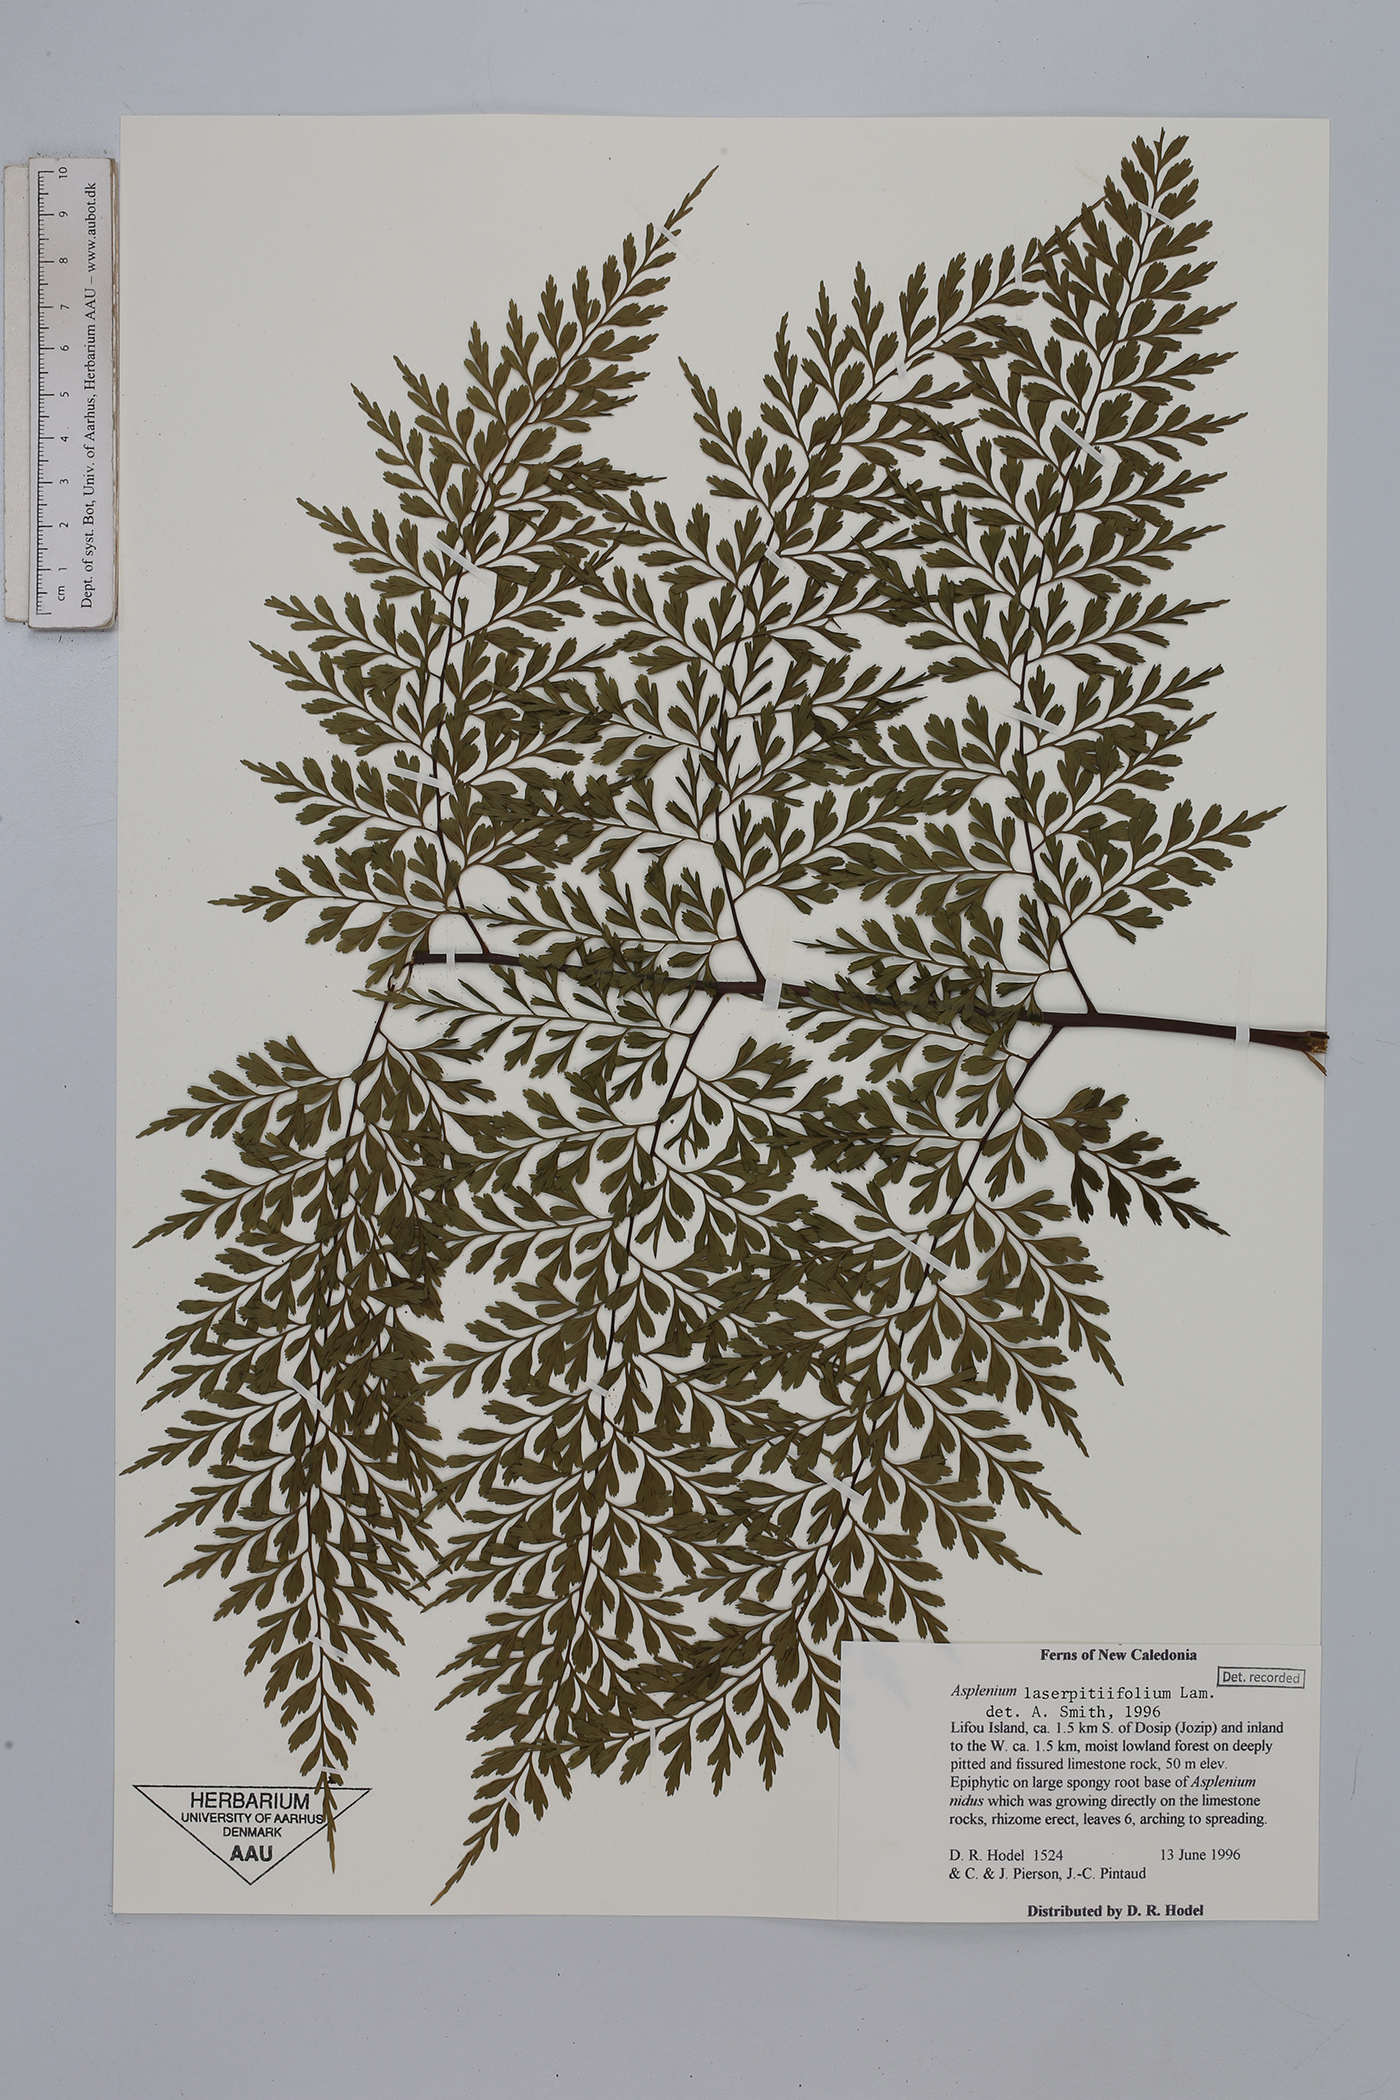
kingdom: Plantae
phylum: Tracheophyta
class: Polypodiopsida
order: Polypodiales
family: Aspleniaceae
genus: Asplenium
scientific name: Asplenium laserpitiifolium
